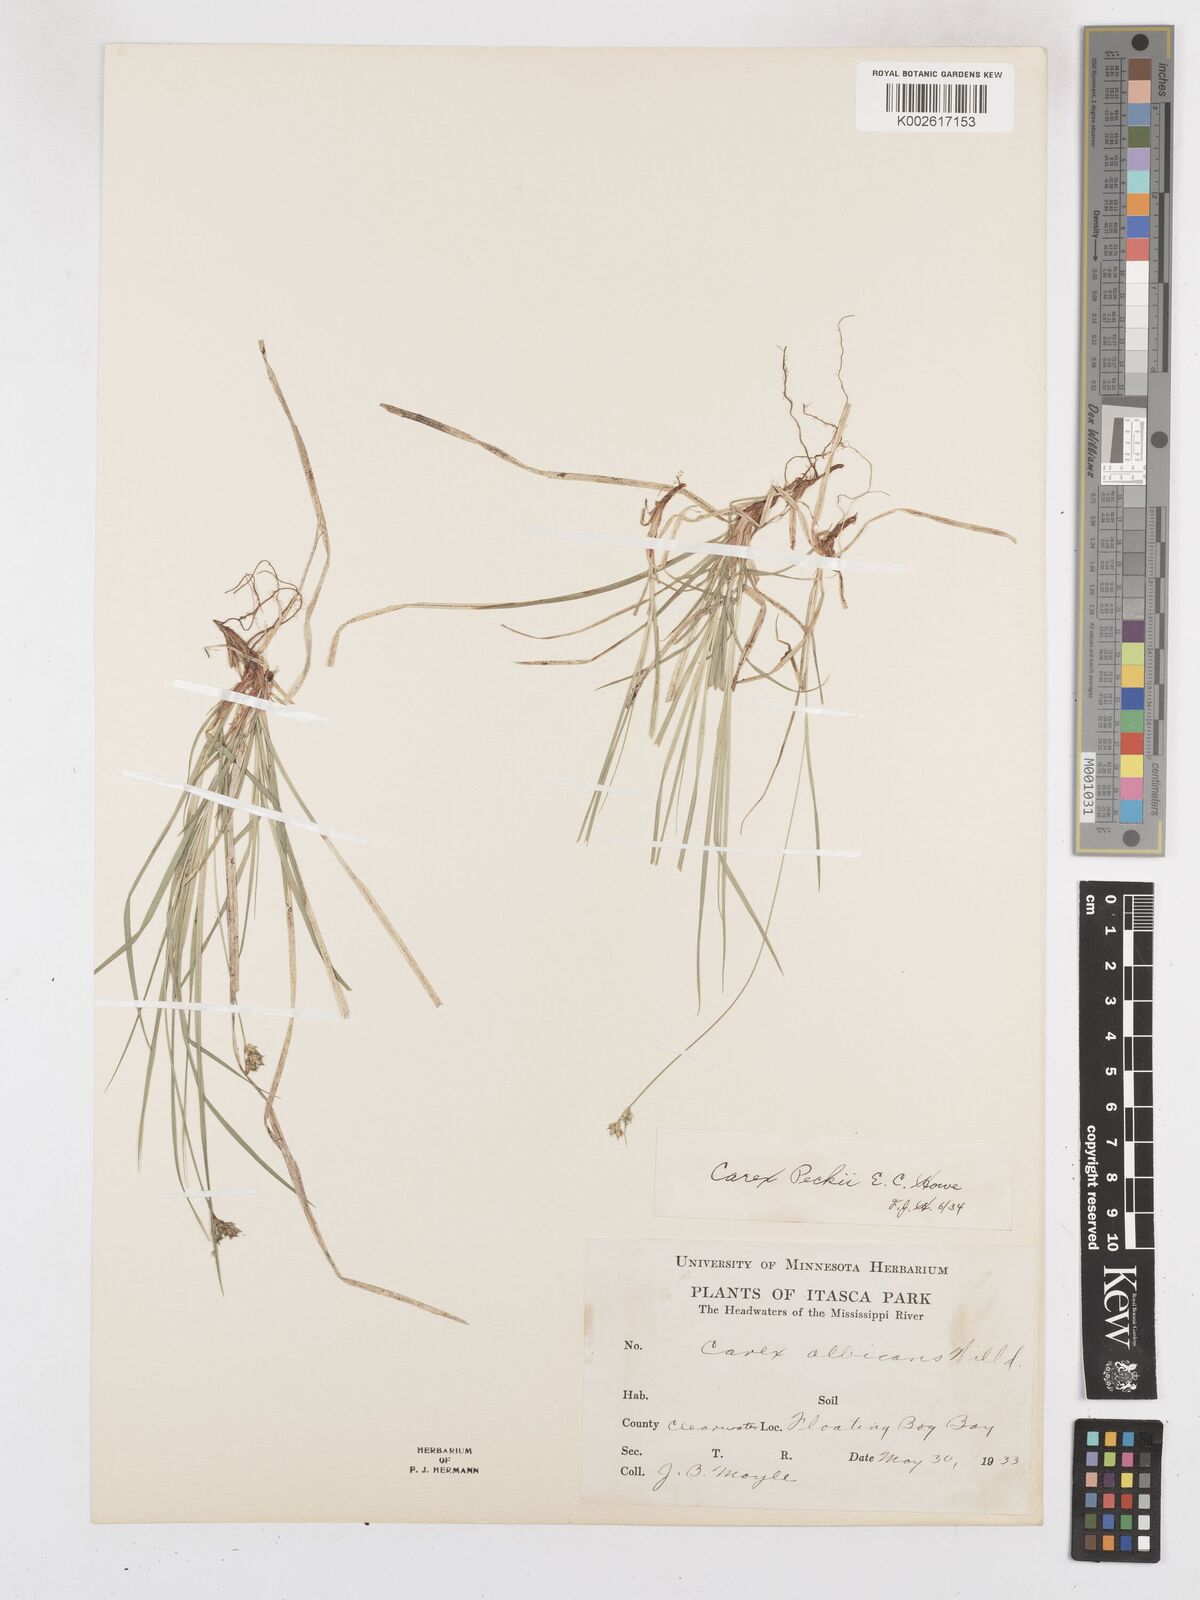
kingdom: Plantae
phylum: Tracheophyta
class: Liliopsida
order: Poales
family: Cyperaceae
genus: Carex
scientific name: Carex peckii
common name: Peck's oak sedge
